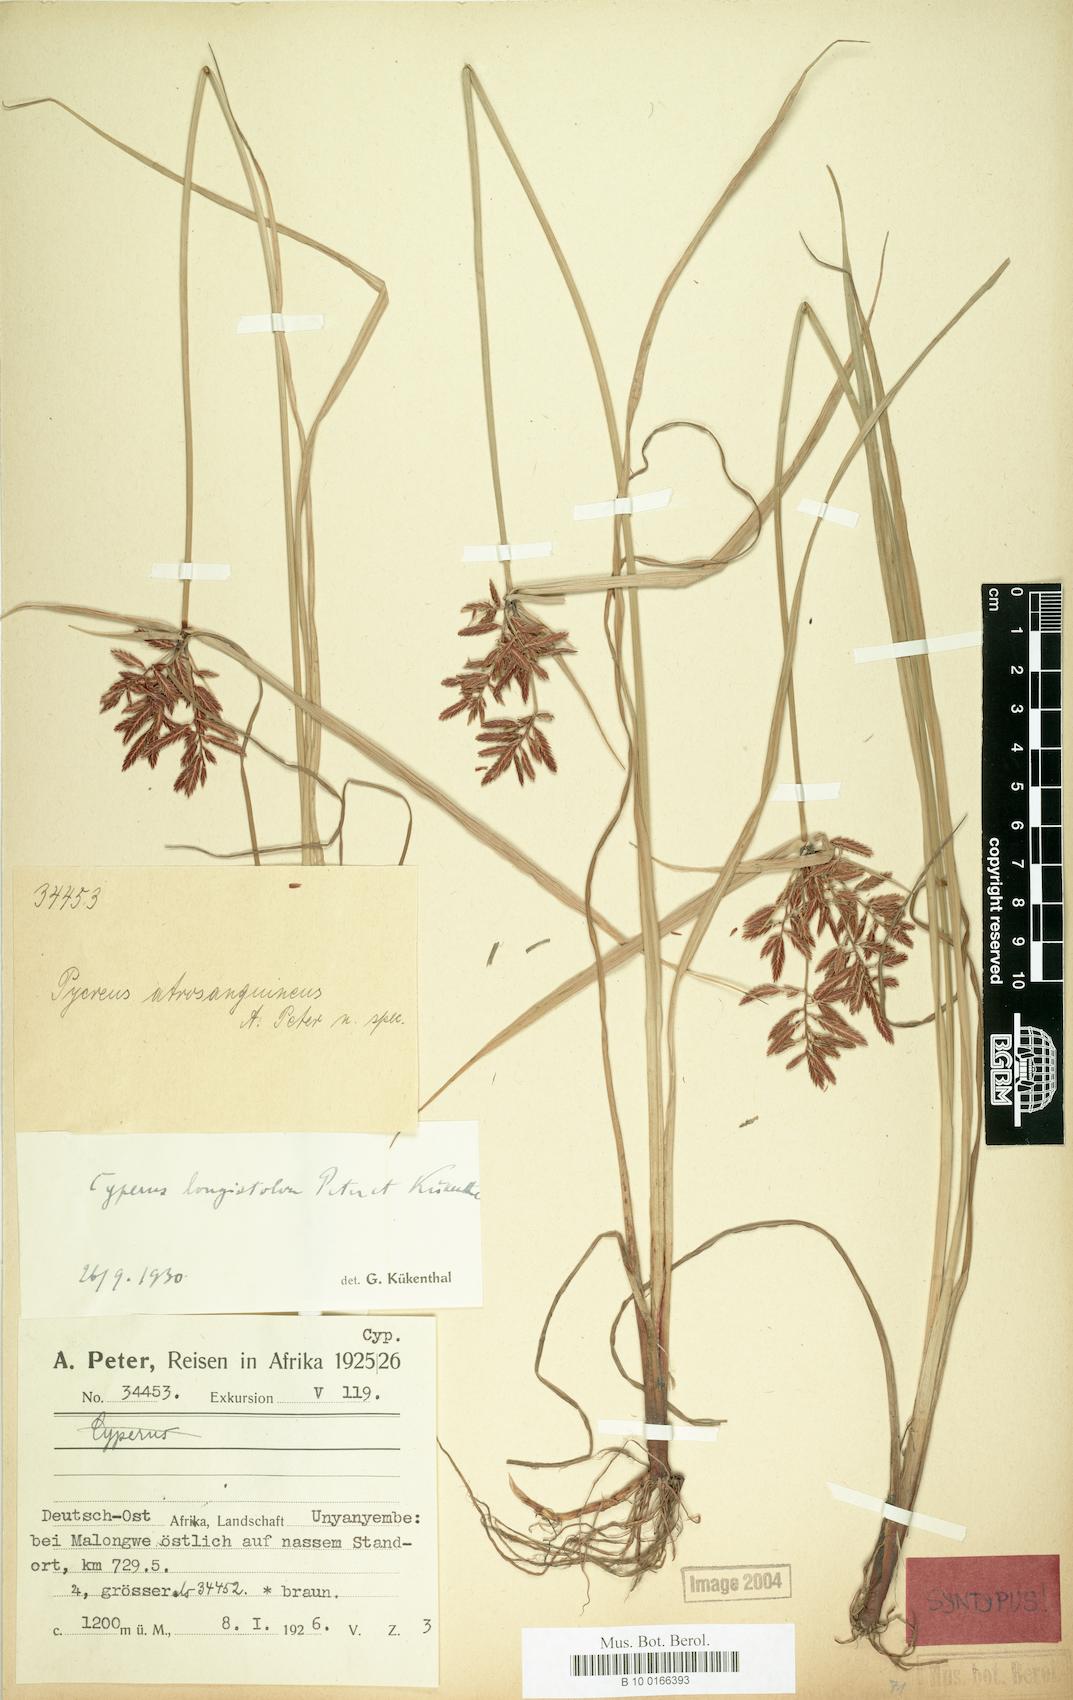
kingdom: Plantae
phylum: Tracheophyta
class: Liliopsida
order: Poales
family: Cyperaceae
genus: Cyperus
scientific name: Cyperus chrysanthus
